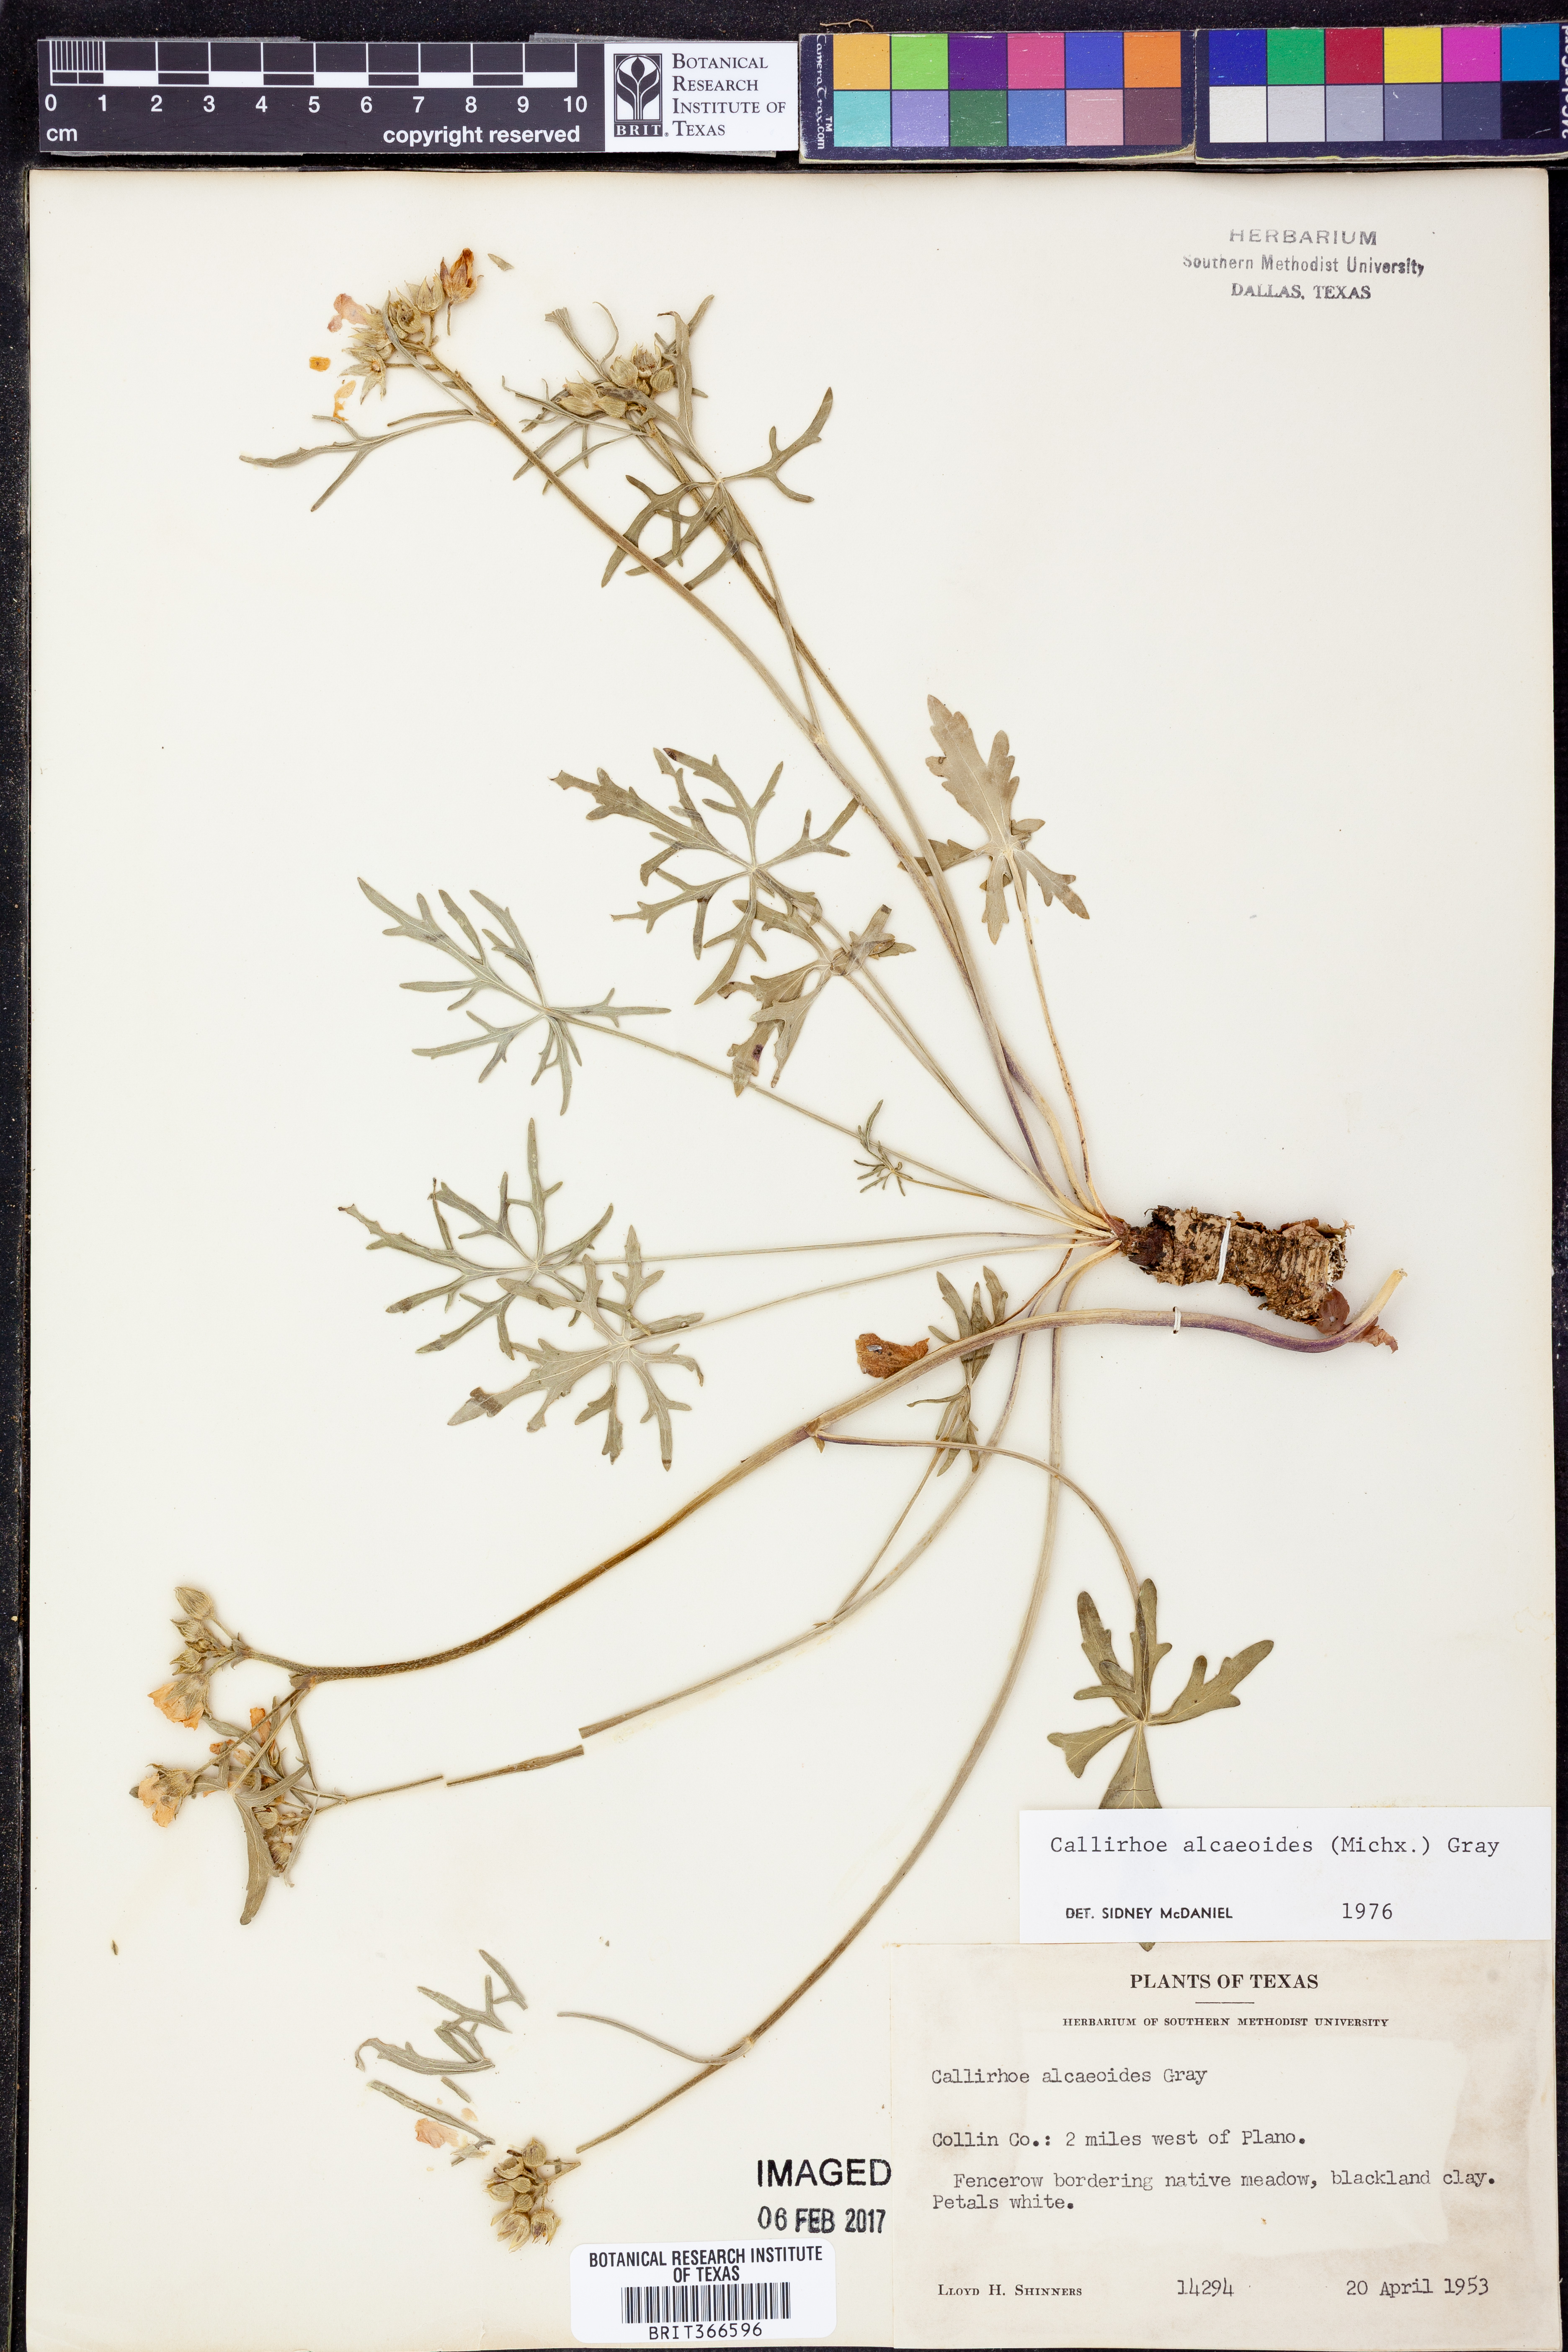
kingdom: Plantae
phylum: Tracheophyta
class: Magnoliopsida
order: Malvales
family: Malvaceae
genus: Callirhoe
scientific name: Callirhoe alcaeoides
